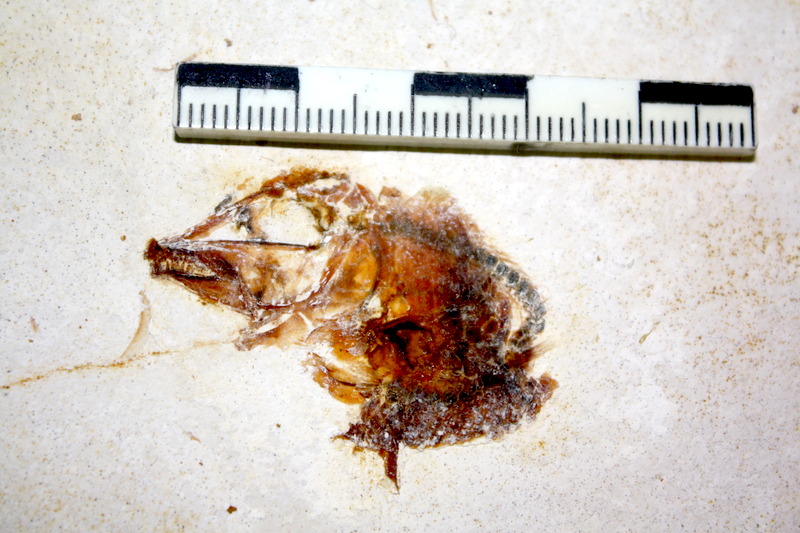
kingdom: Animalia
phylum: Chordata
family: Macrosemiidae
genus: Notagogus
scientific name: Notagogus denticulatus
